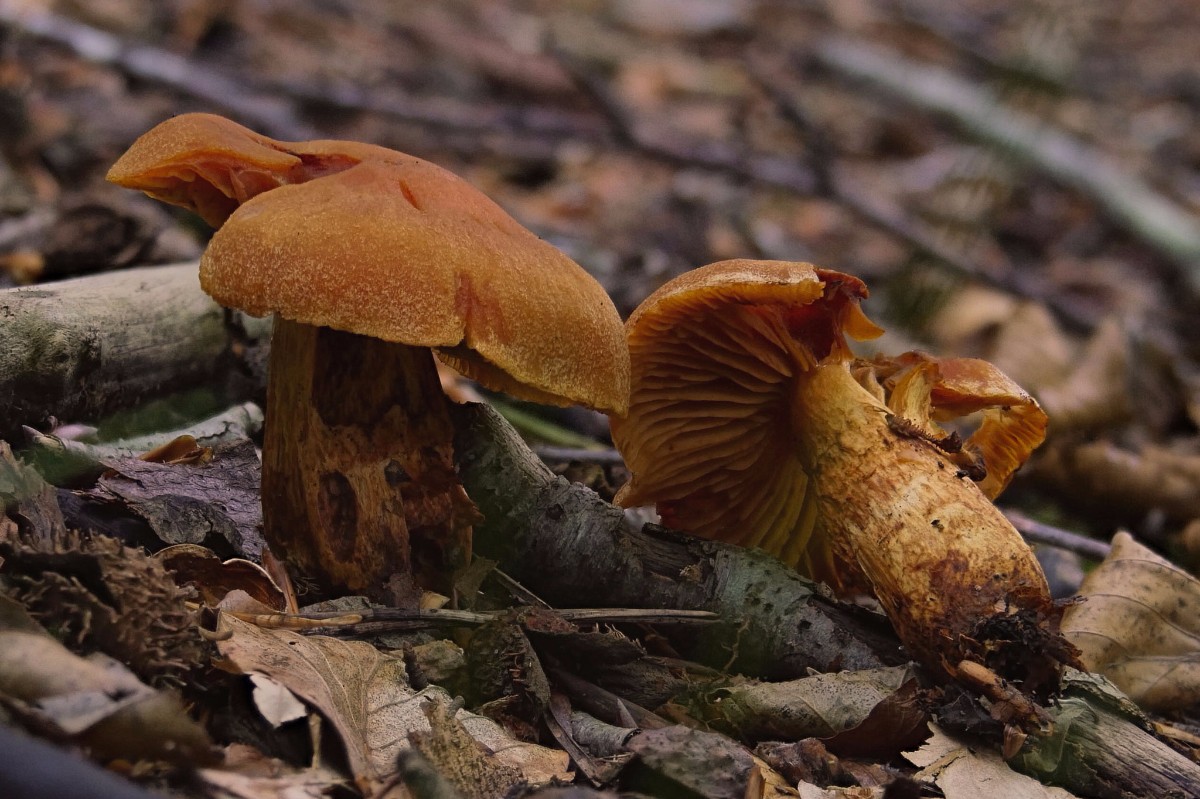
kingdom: Fungi
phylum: Basidiomycota
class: Agaricomycetes
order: Agaricales
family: Cortinariaceae
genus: Aureonarius
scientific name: Aureonarius limonius
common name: orangegul slørhat
